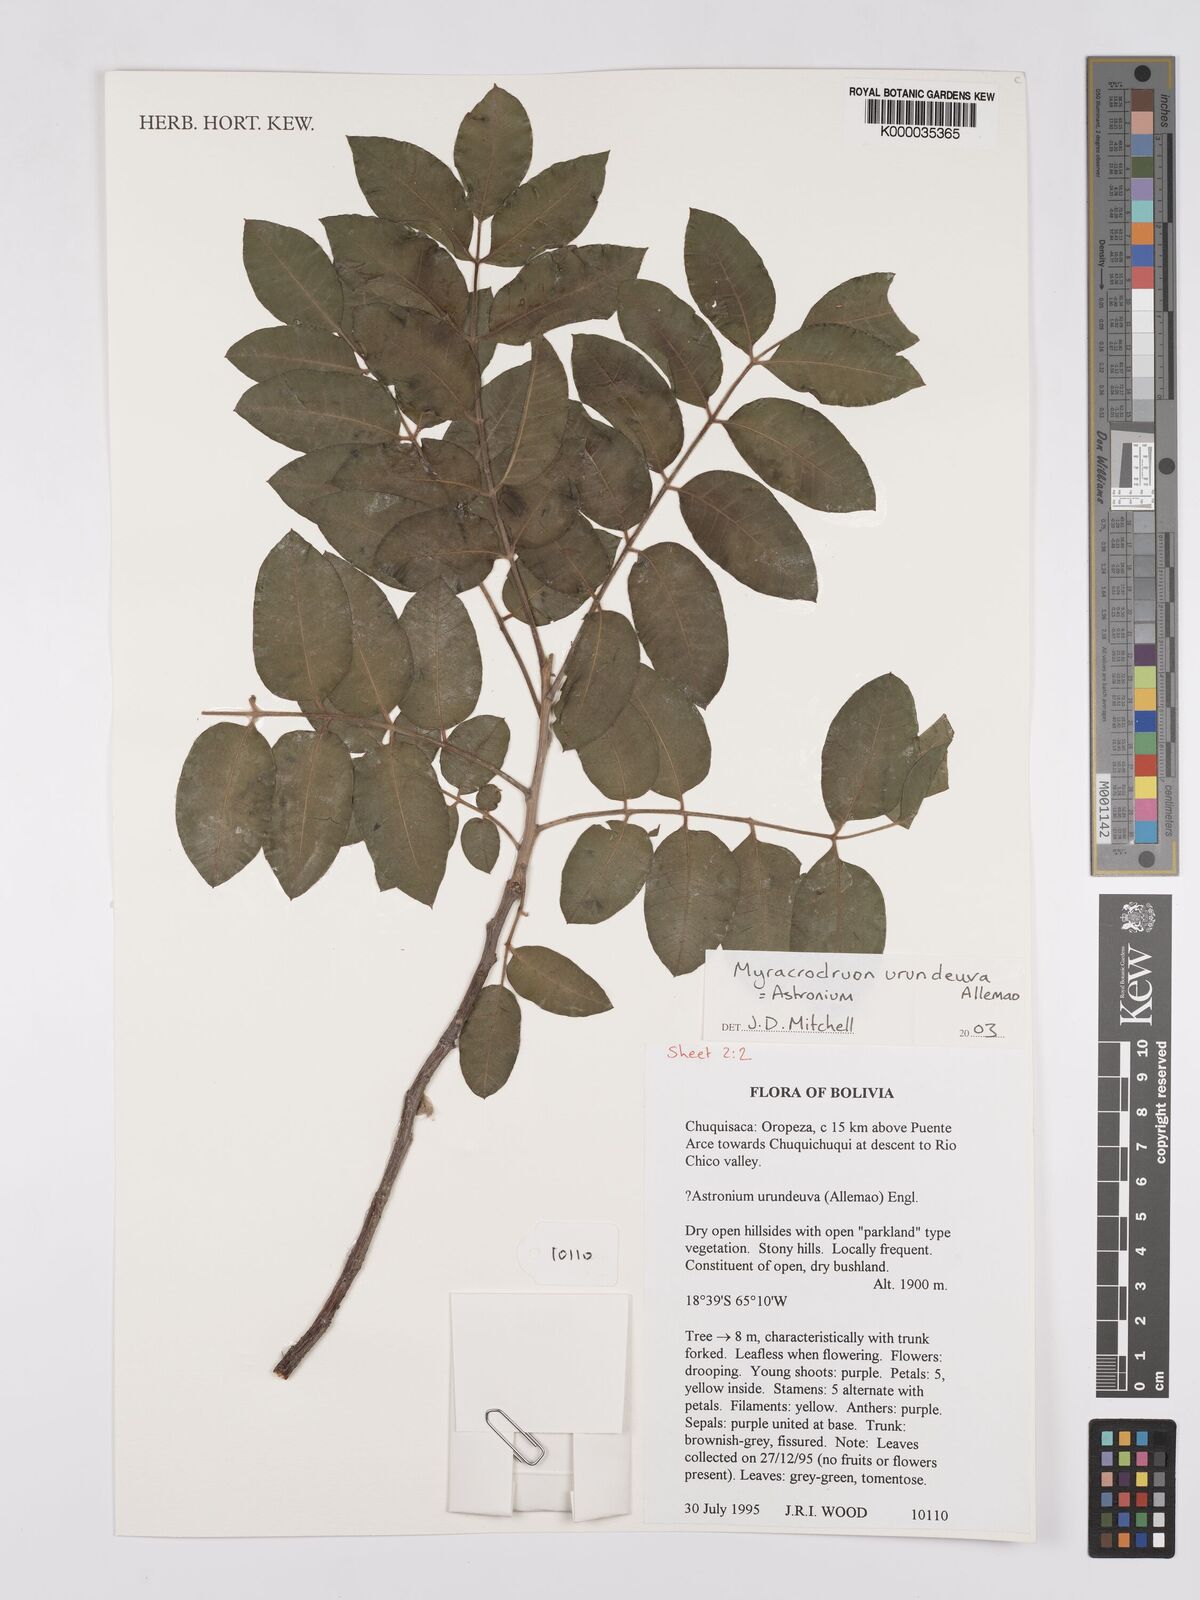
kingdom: Plantae
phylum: Tracheophyta
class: Magnoliopsida
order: Sapindales
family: Anacardiaceae
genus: Myracrodruon
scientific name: Myracrodruon urundeuva
